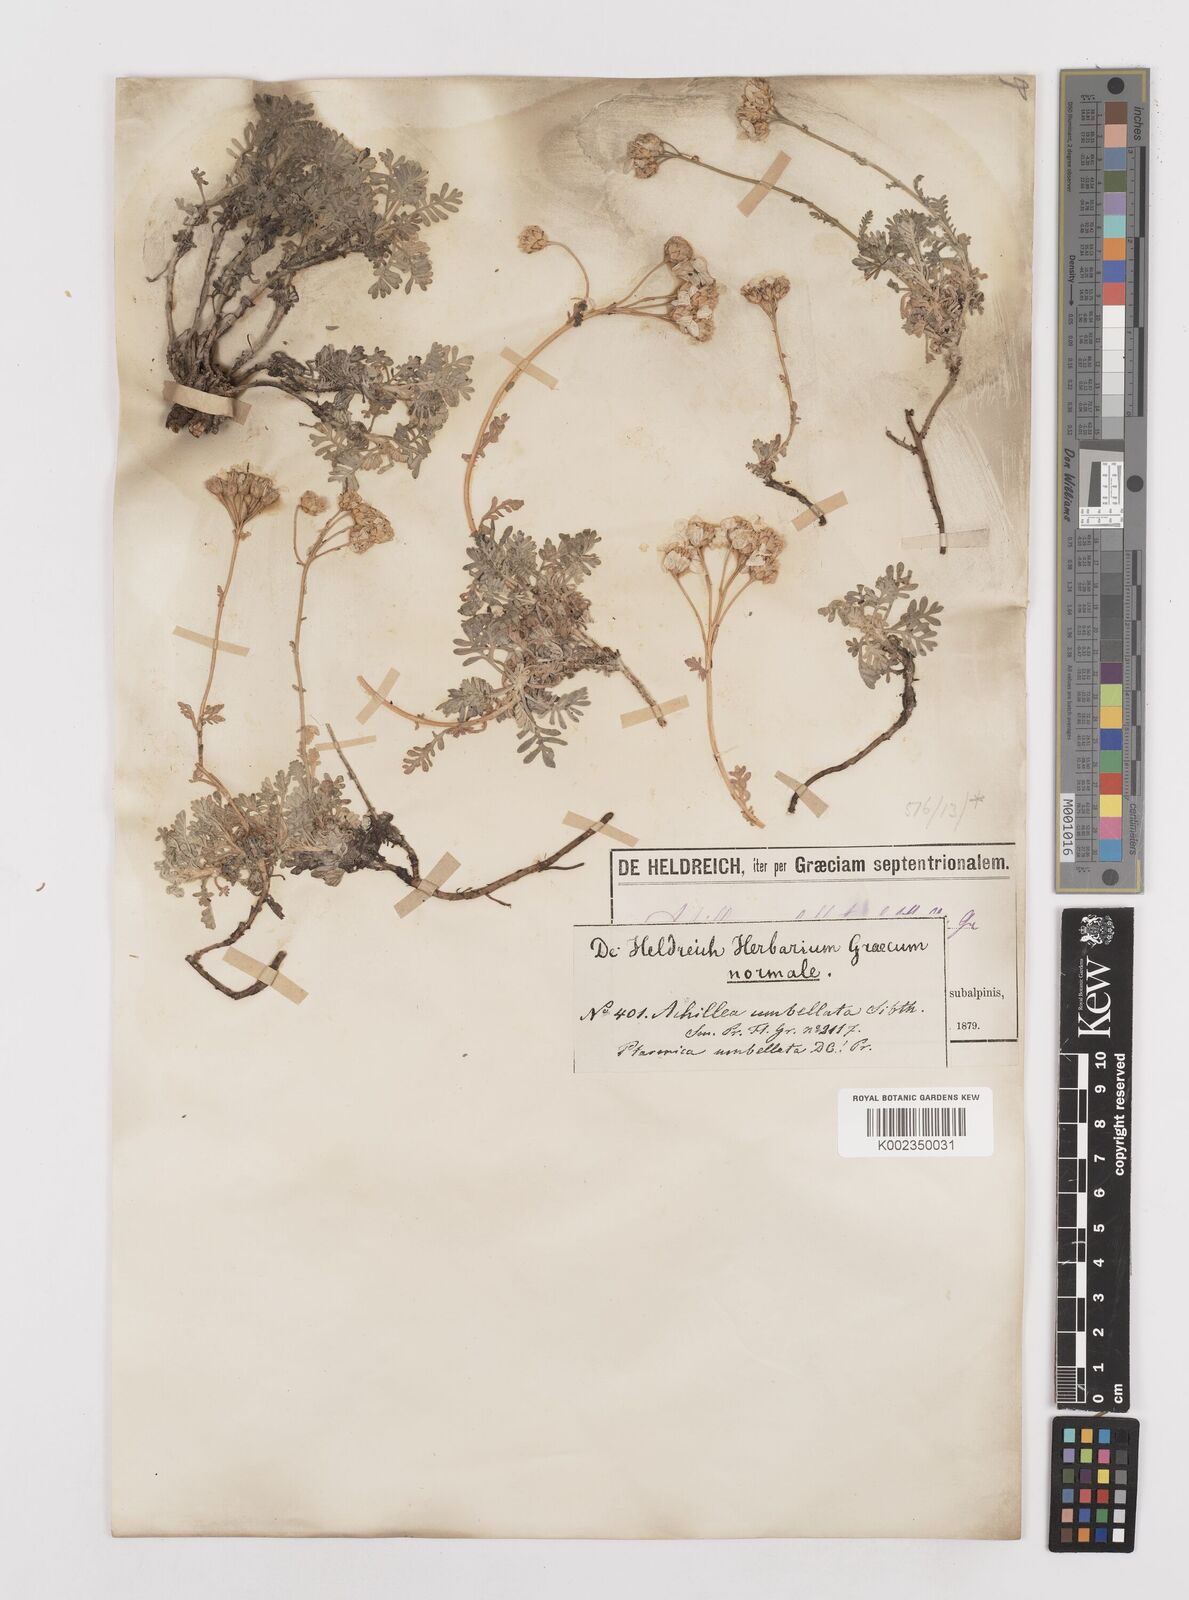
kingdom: Plantae
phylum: Tracheophyta
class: Magnoliopsida
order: Asterales
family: Asteraceae
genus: Achillea
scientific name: Achillea umbellata
